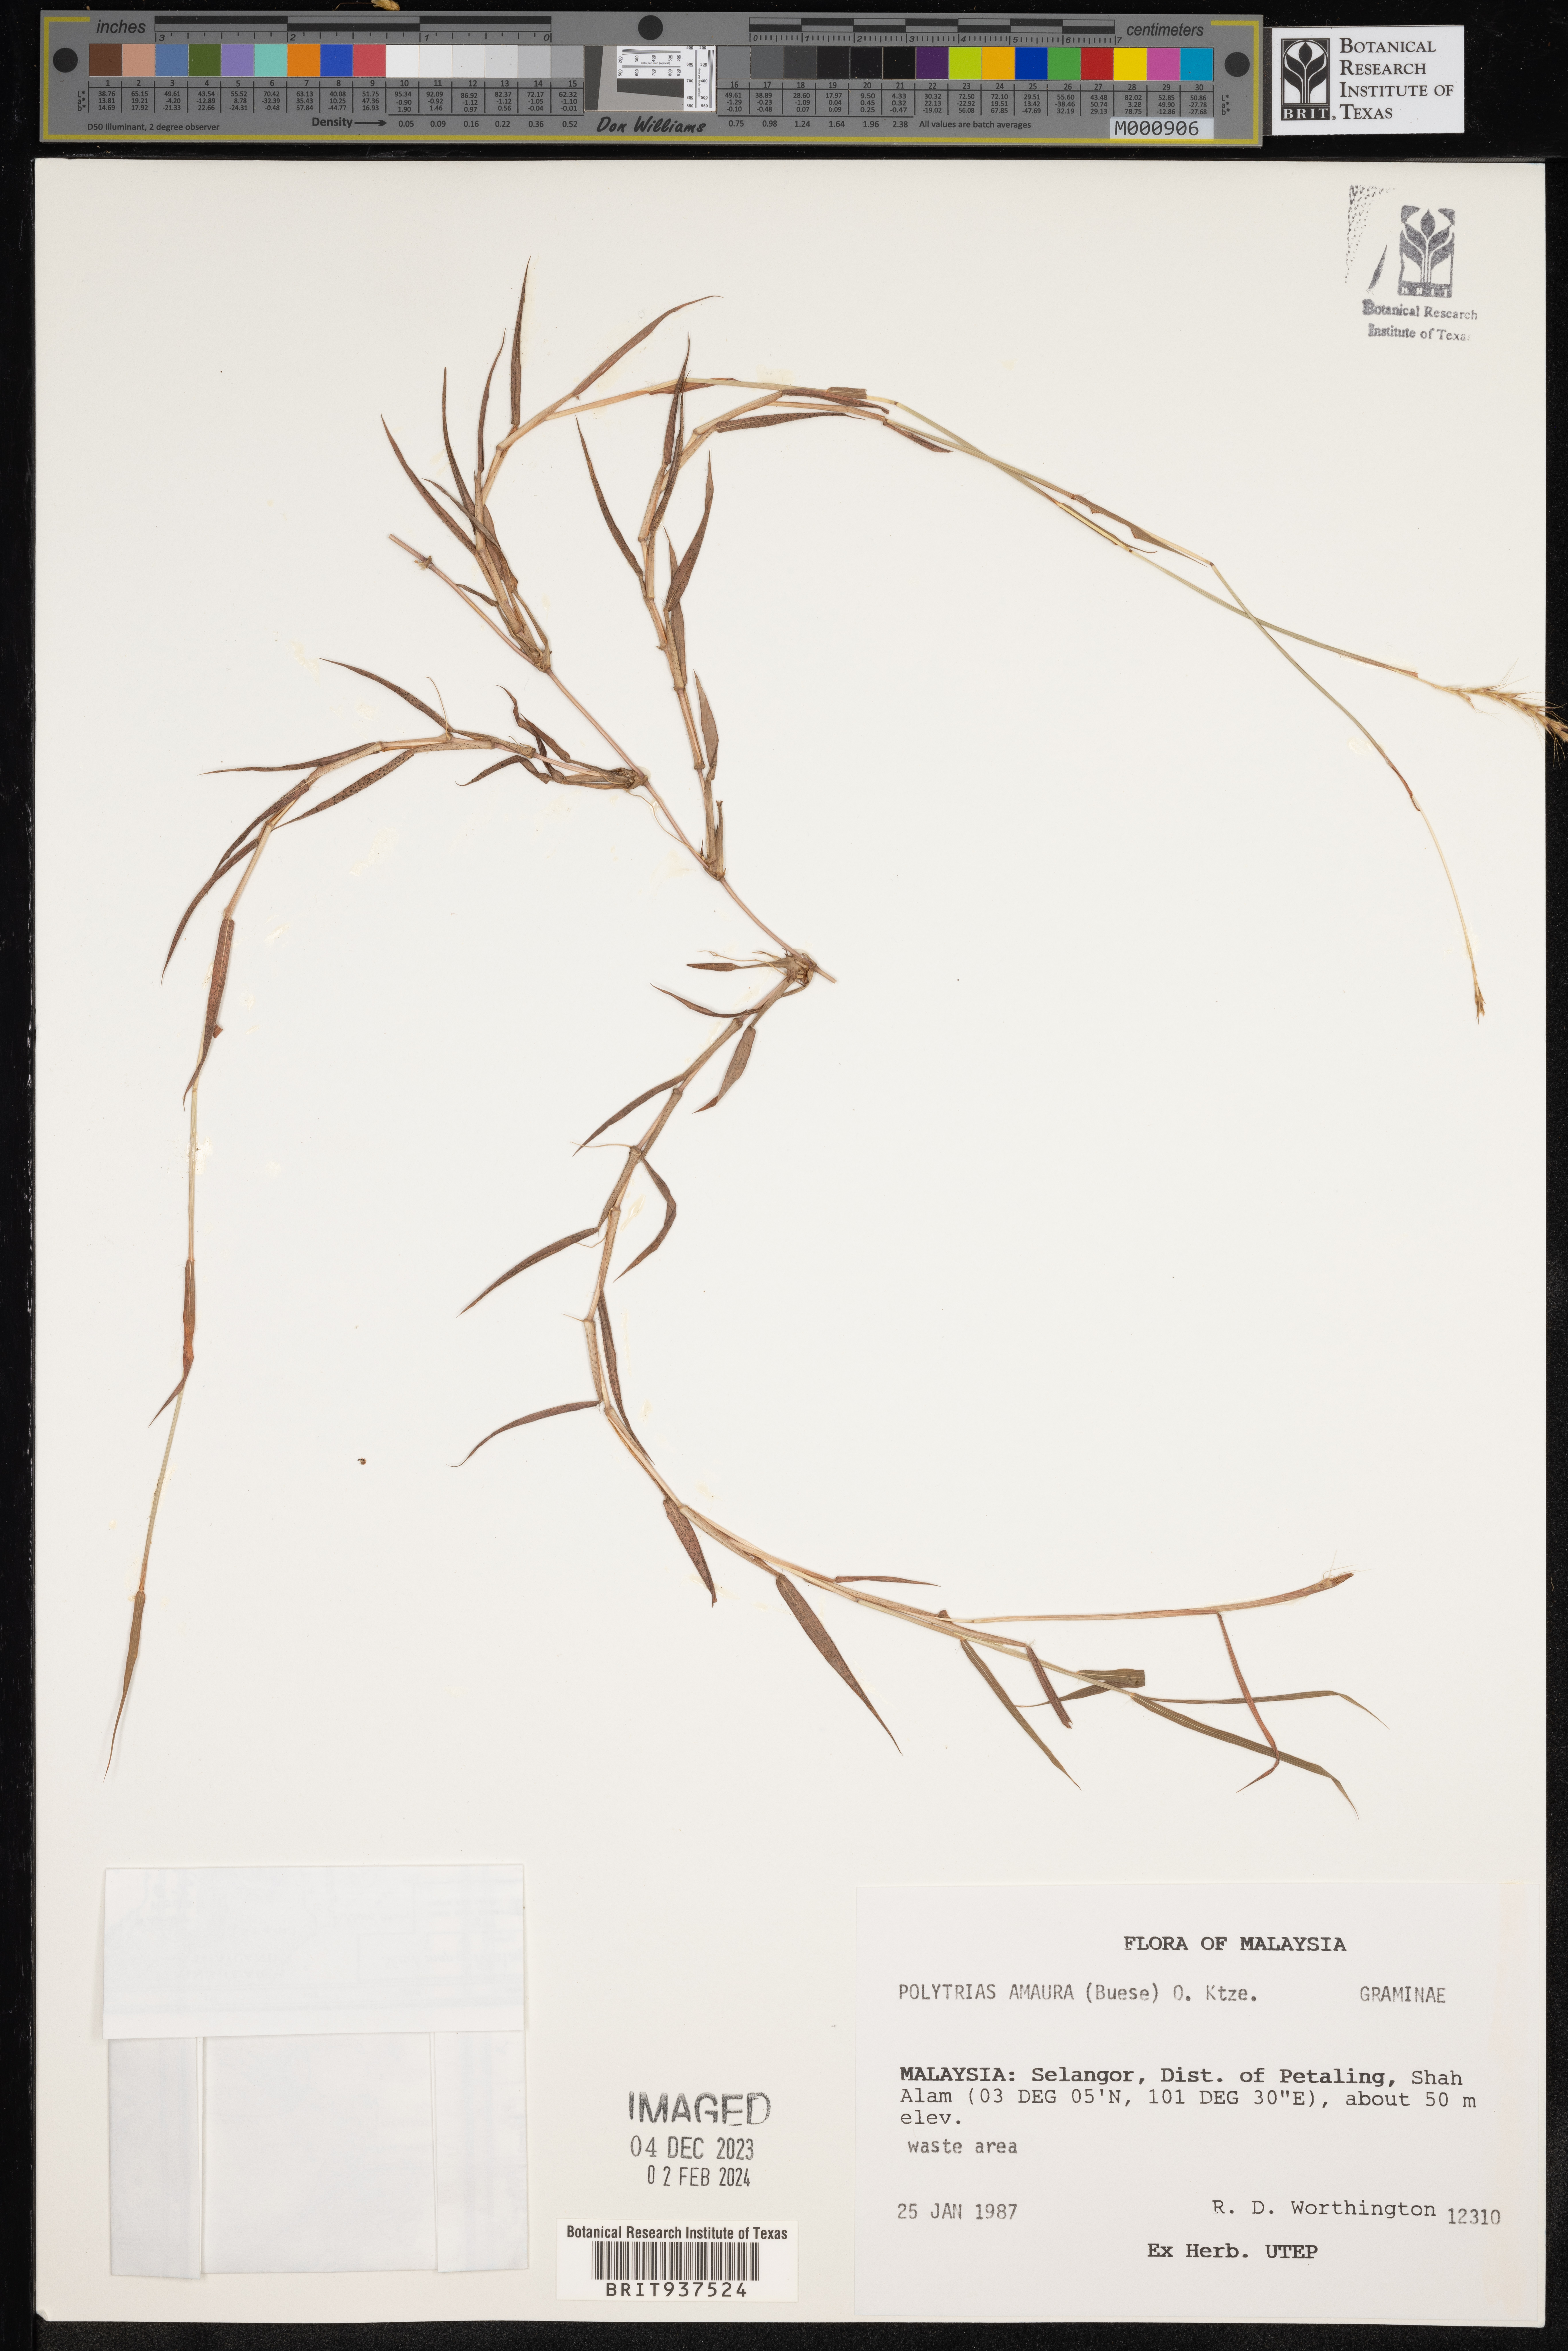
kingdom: Plantae
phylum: Tracheophyta
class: Liliopsida
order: Poales
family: Poaceae
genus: Polytrias
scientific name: Polytrias
